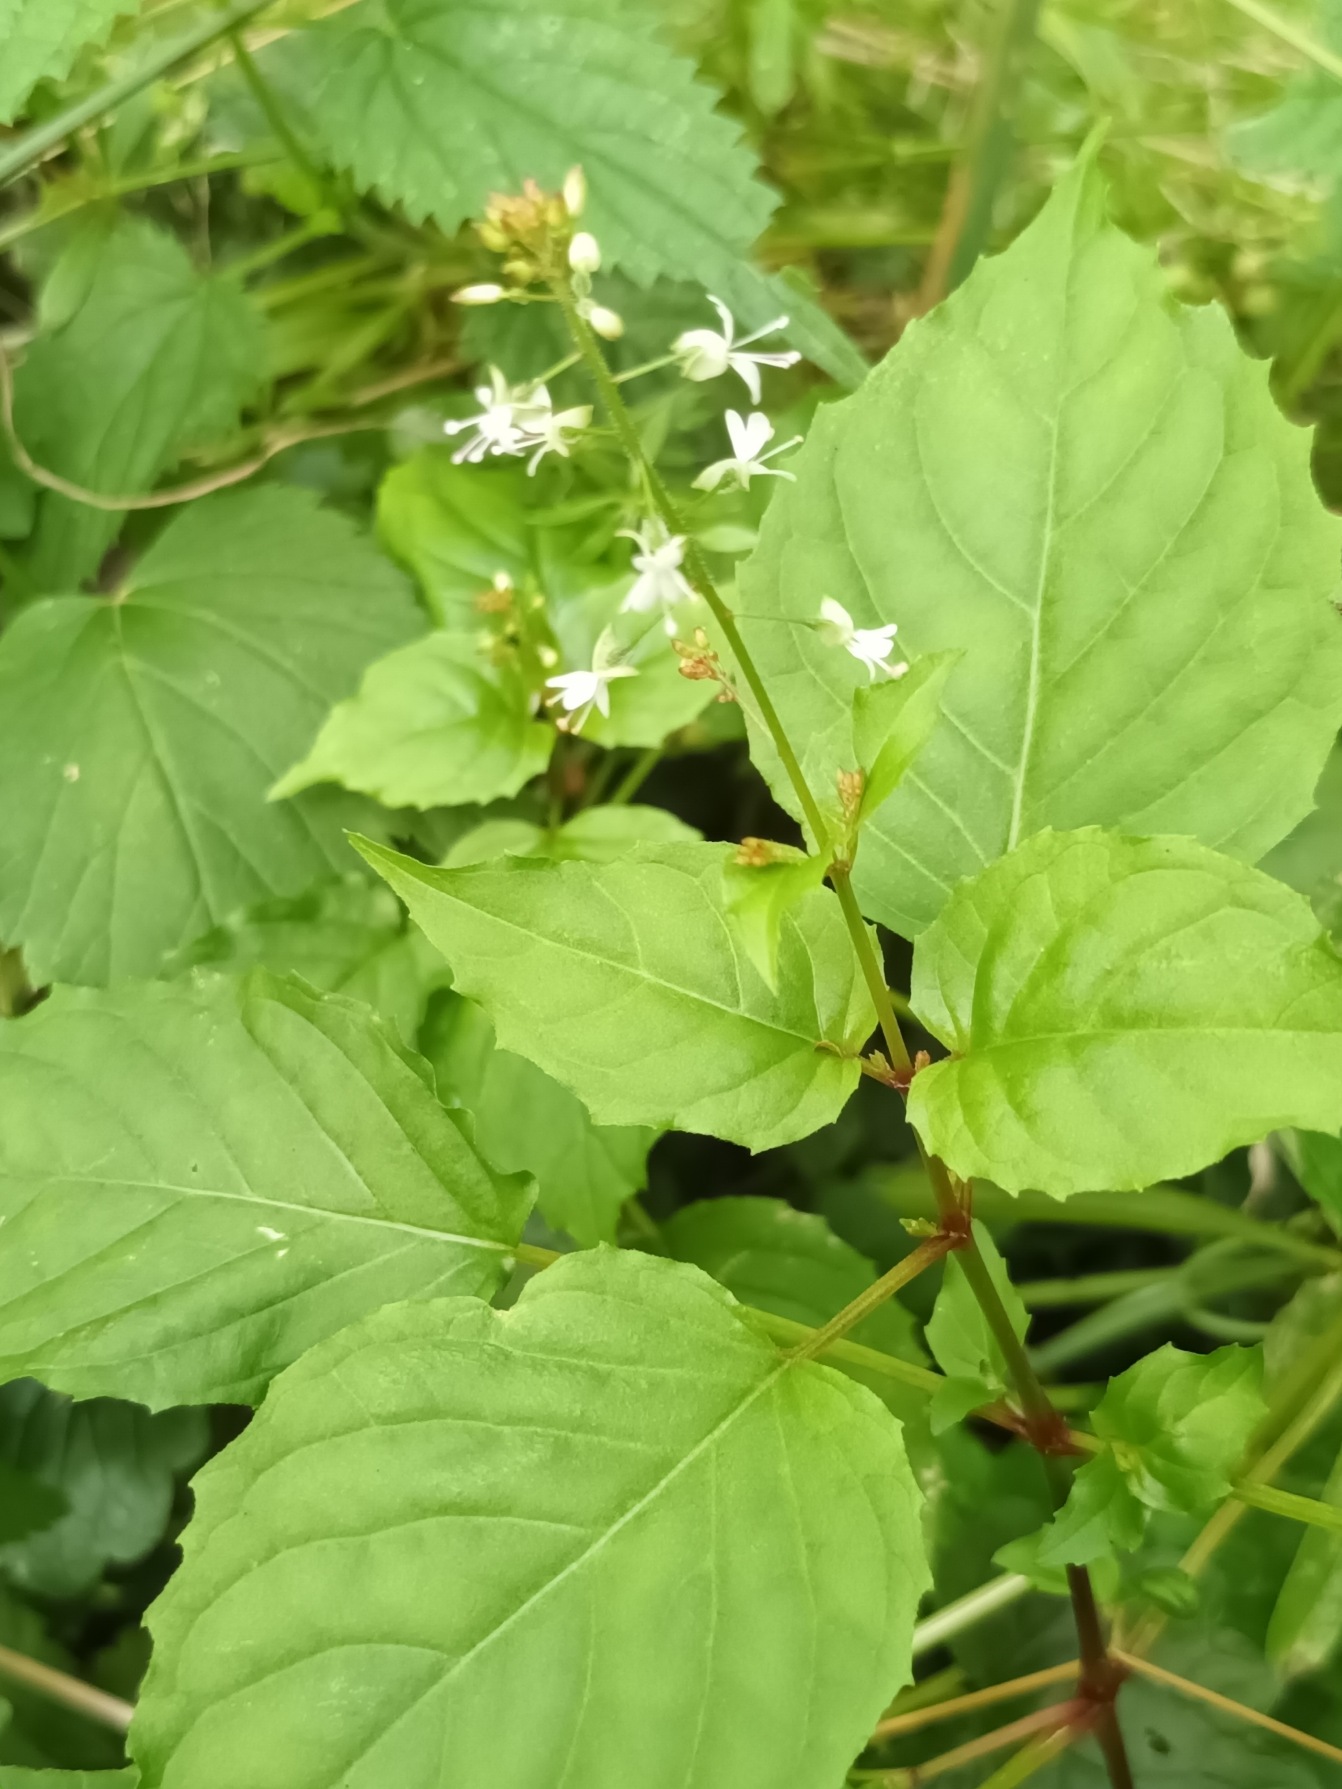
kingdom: Plantae
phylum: Tracheophyta
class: Magnoliopsida
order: Myrtales
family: Onagraceae
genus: Circaea
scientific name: Circaea intermedia
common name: Spidsbladet steffensurt
